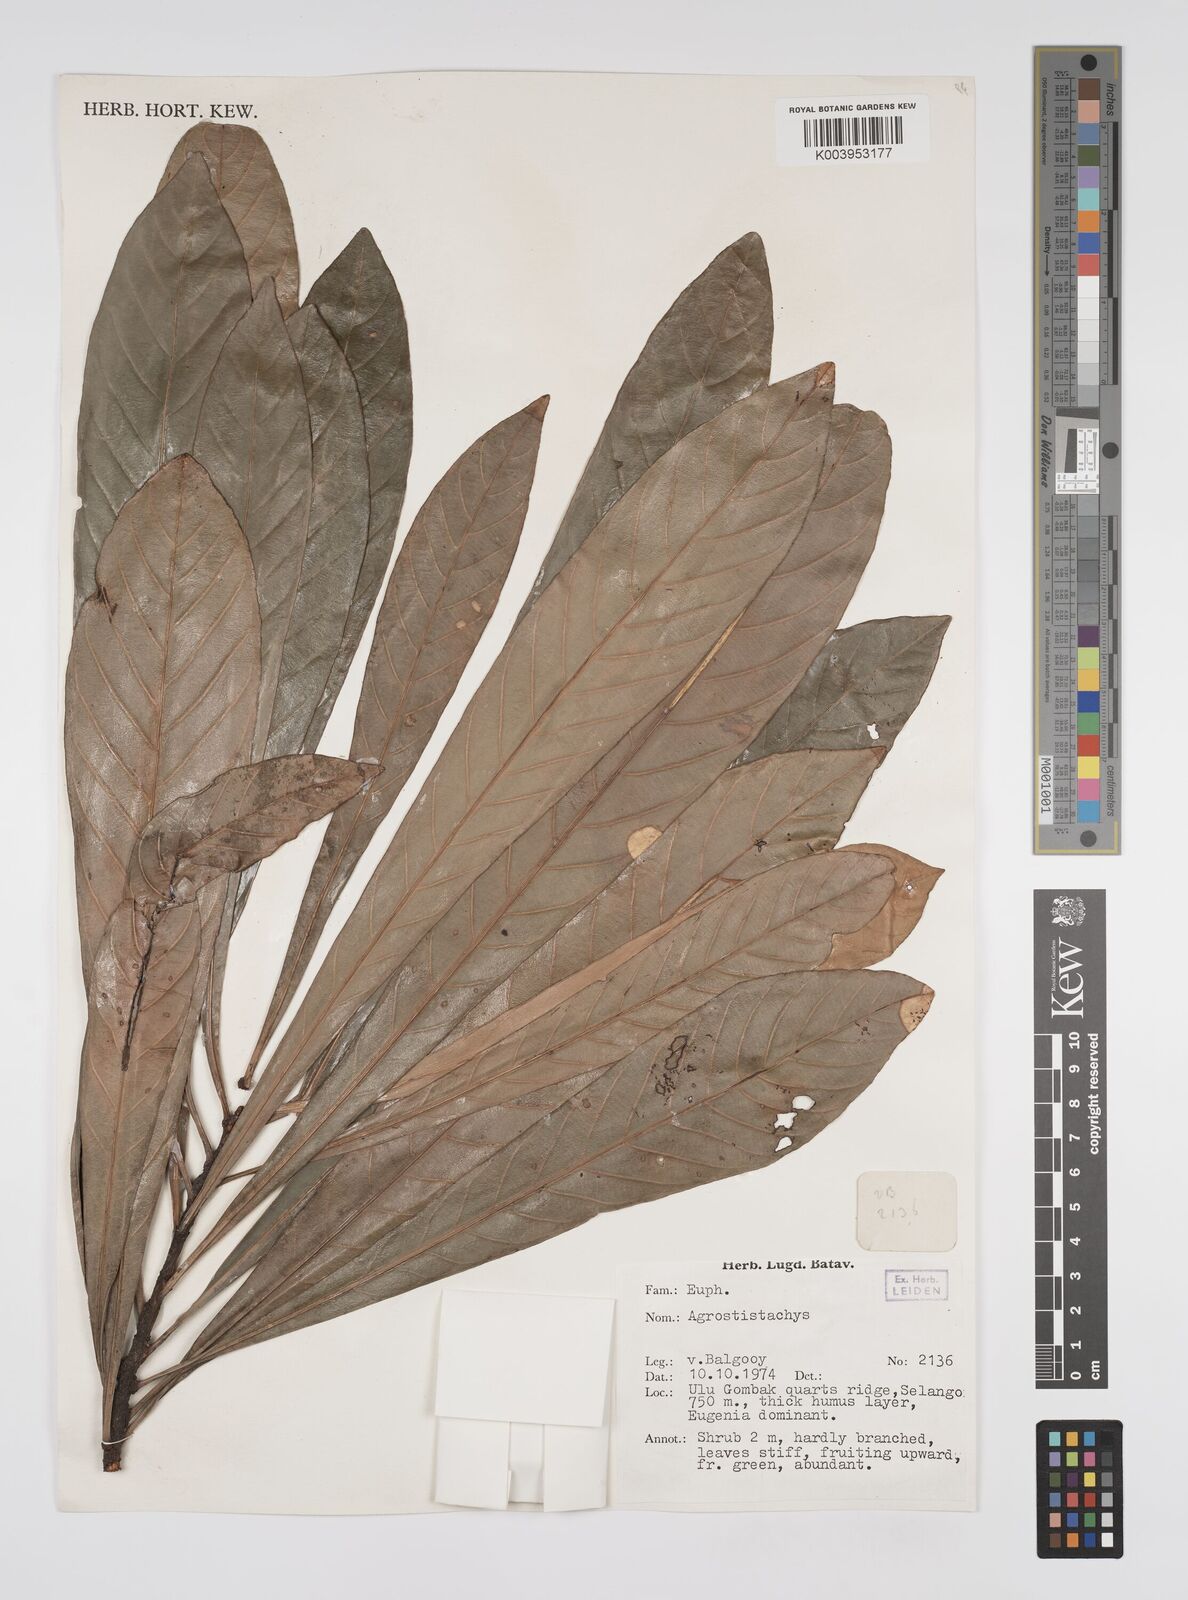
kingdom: Plantae
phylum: Tracheophyta
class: Magnoliopsida
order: Malpighiales
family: Euphorbiaceae
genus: Agrostistachys
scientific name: Agrostistachys borneensis
